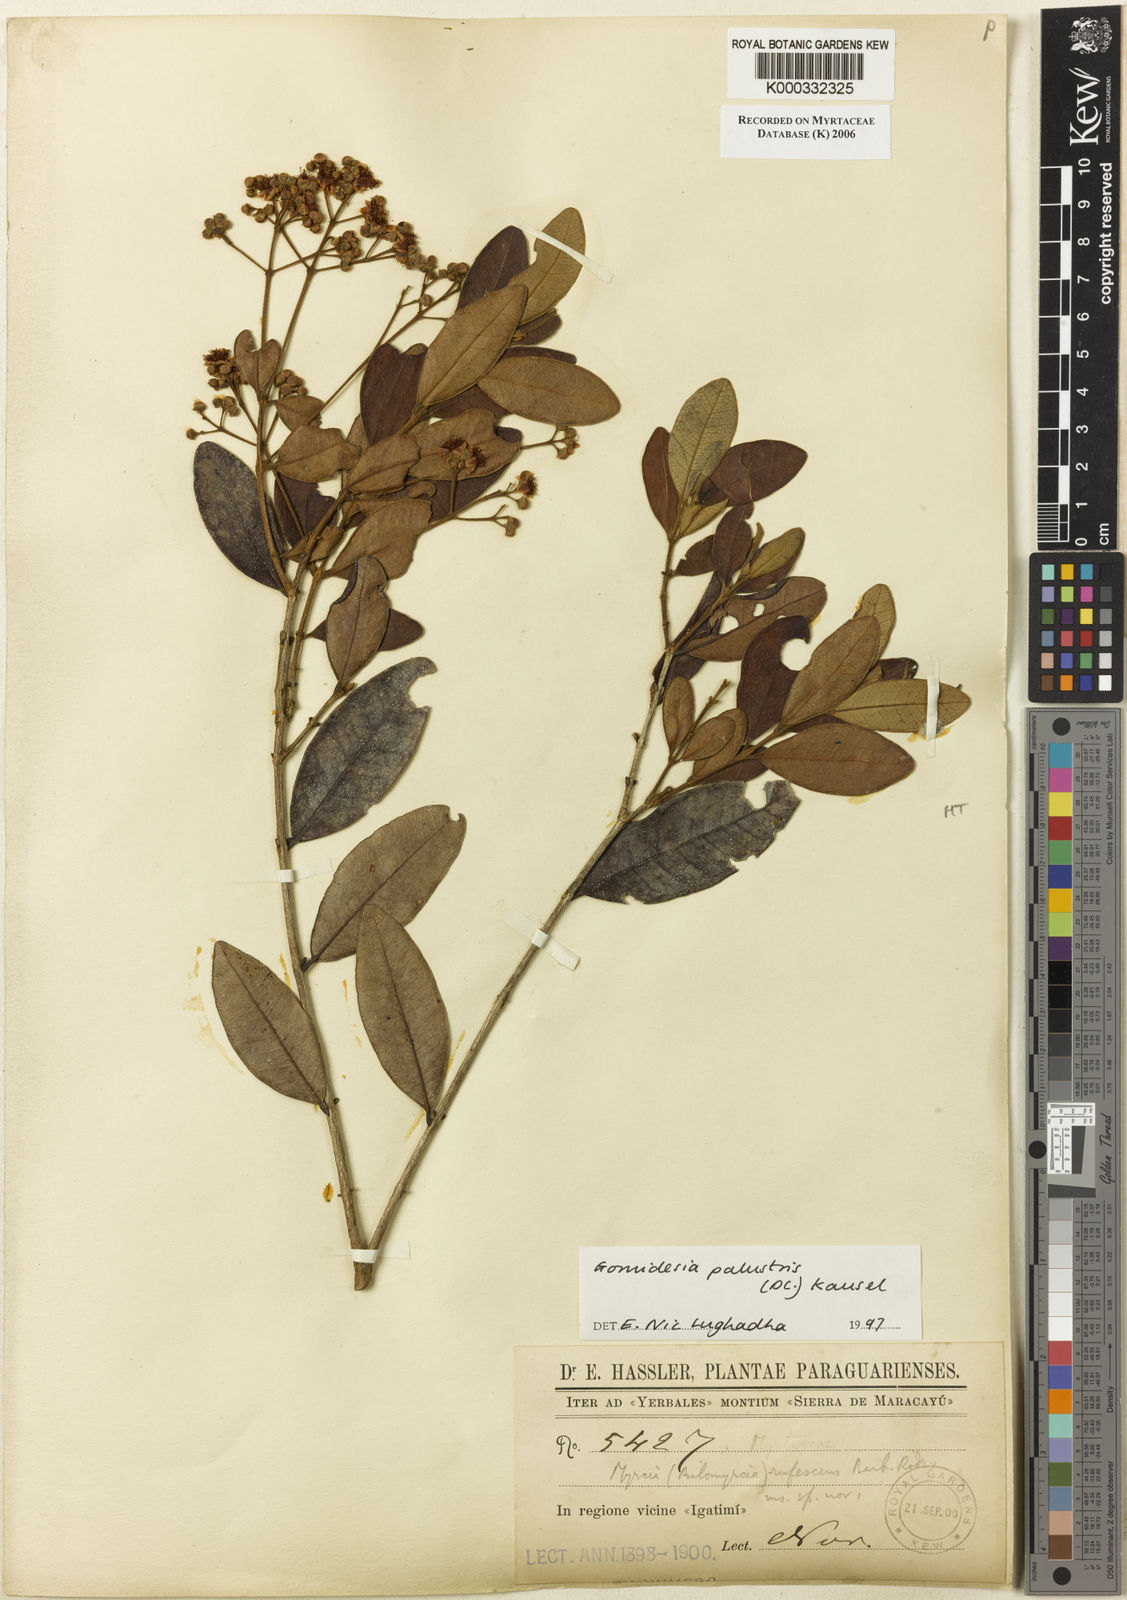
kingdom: Plantae
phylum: Tracheophyta
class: Magnoliopsida
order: Myrtales
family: Myrtaceae
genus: Myrcia
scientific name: Myrcia palustris
